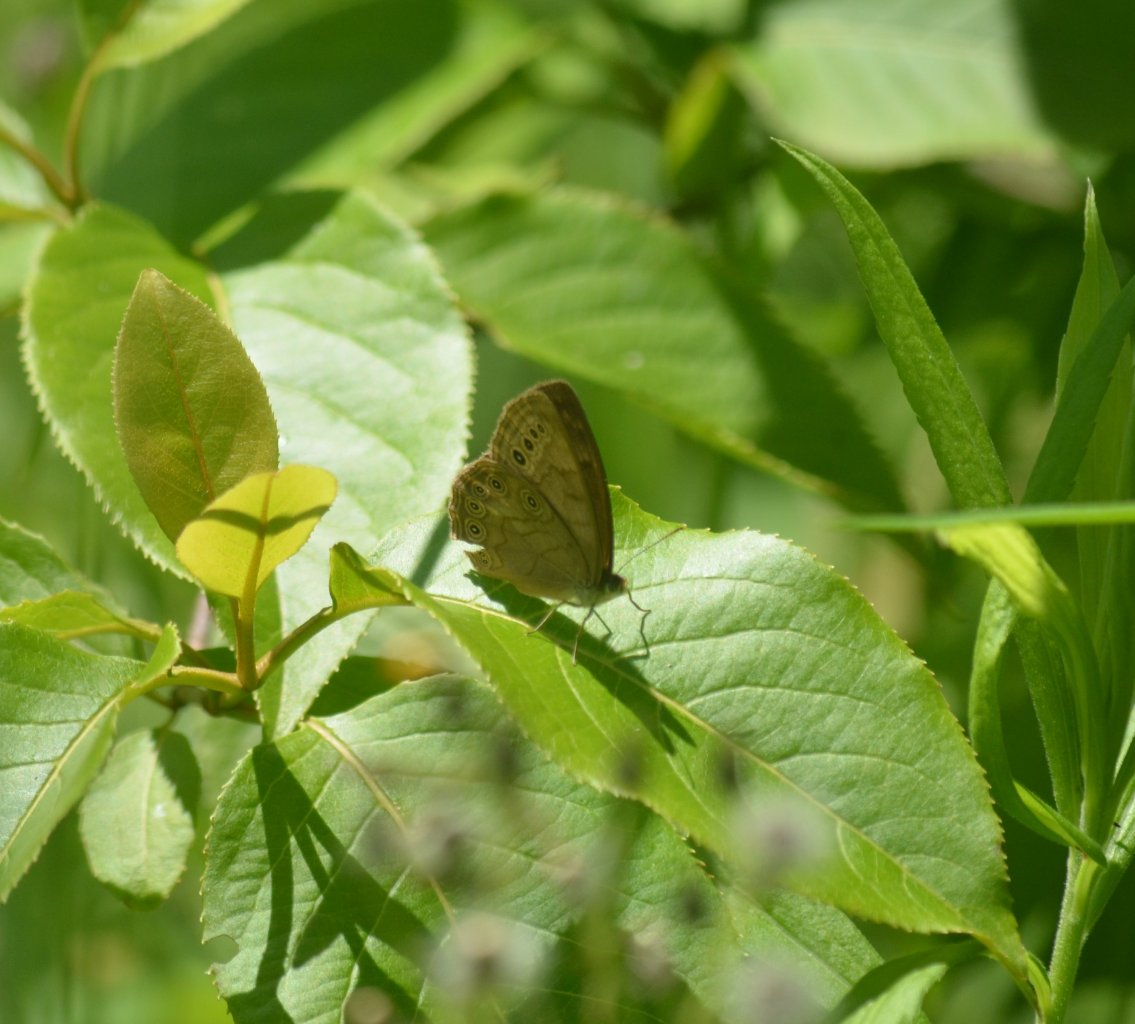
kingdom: Animalia
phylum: Arthropoda
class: Insecta
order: Lepidoptera
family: Nymphalidae
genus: Lethe
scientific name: Lethe eurydice
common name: Eyed Brown
